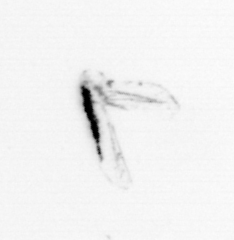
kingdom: Animalia
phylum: Arthropoda
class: Maxillopoda
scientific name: Maxillopoda
